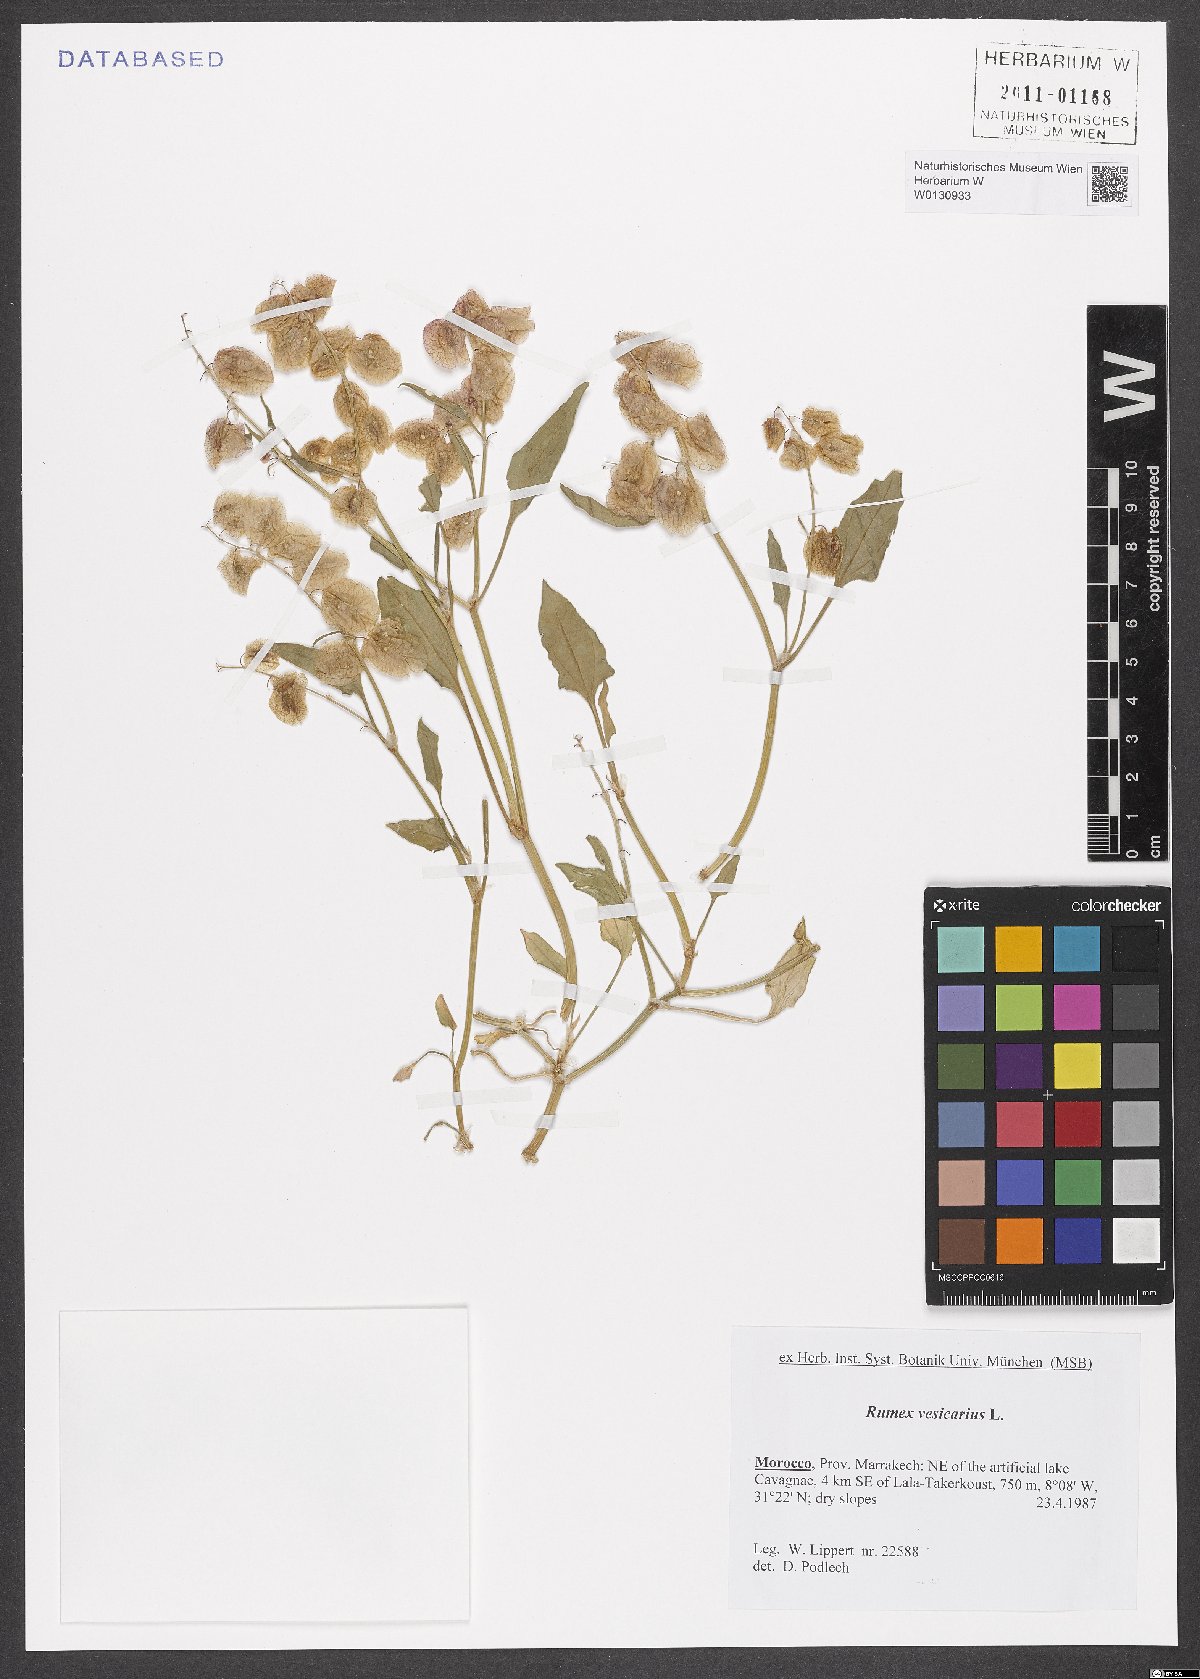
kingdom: Plantae
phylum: Tracheophyta
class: Magnoliopsida
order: Caryophyllales
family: Polygonaceae
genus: Rumex
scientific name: Rumex vesicarius
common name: Bladder dock
